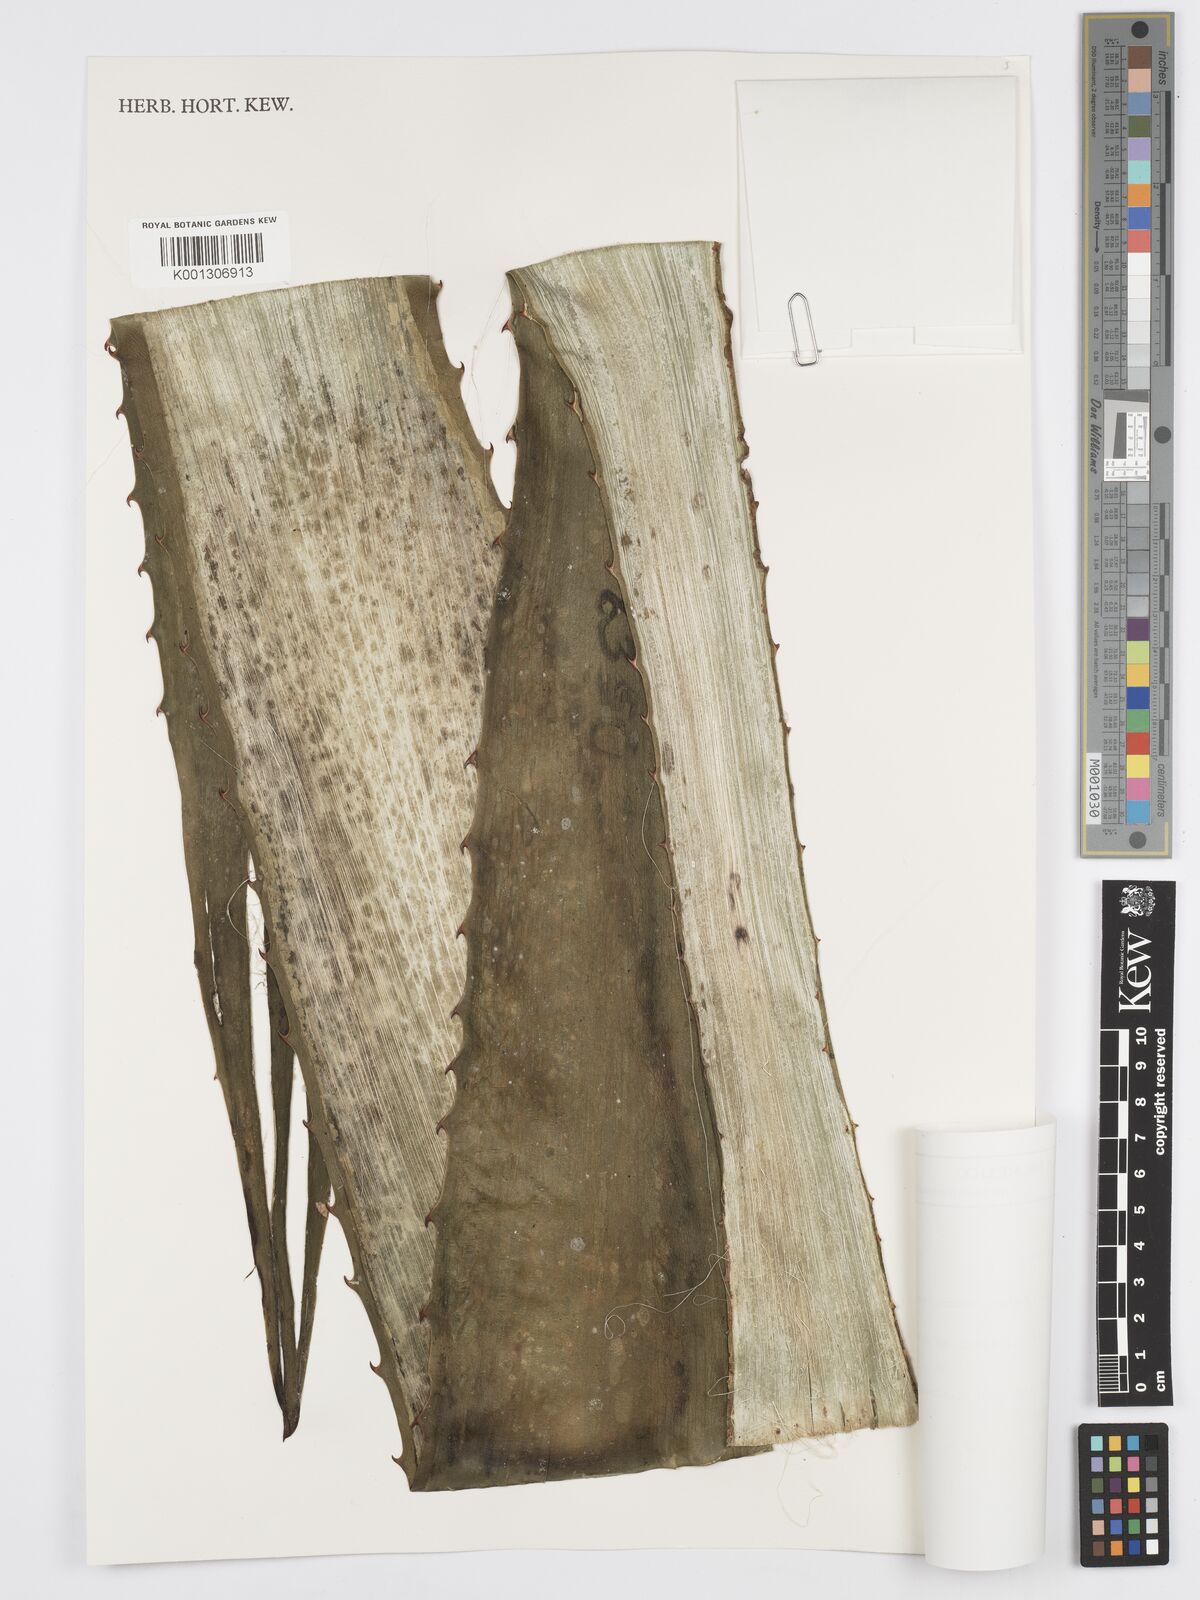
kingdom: Plantae
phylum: Tracheophyta
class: Liliopsida
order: Asparagales
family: Asparagaceae
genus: Furcraea
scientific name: Furcraea guerrerensis
